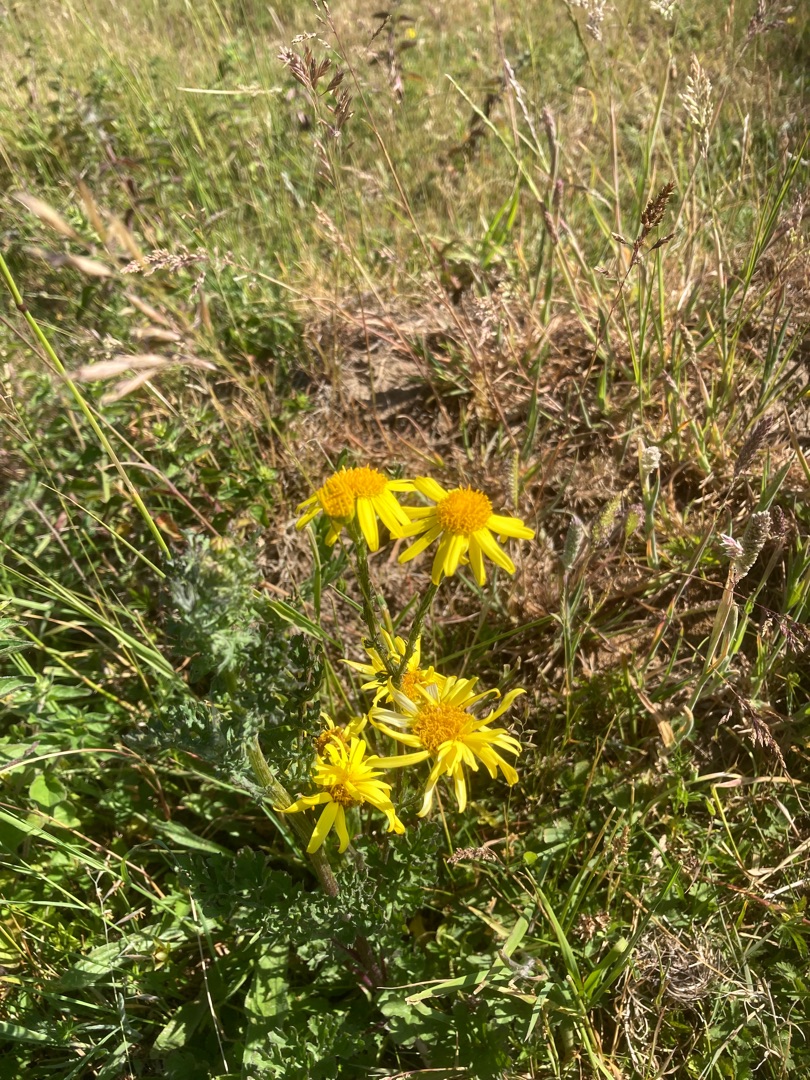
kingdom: Plantae
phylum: Tracheophyta
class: Magnoliopsida
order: Asterales
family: Asteraceae
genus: Jacobaea
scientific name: Jacobaea vulgaris
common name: Eng-brandbæger
